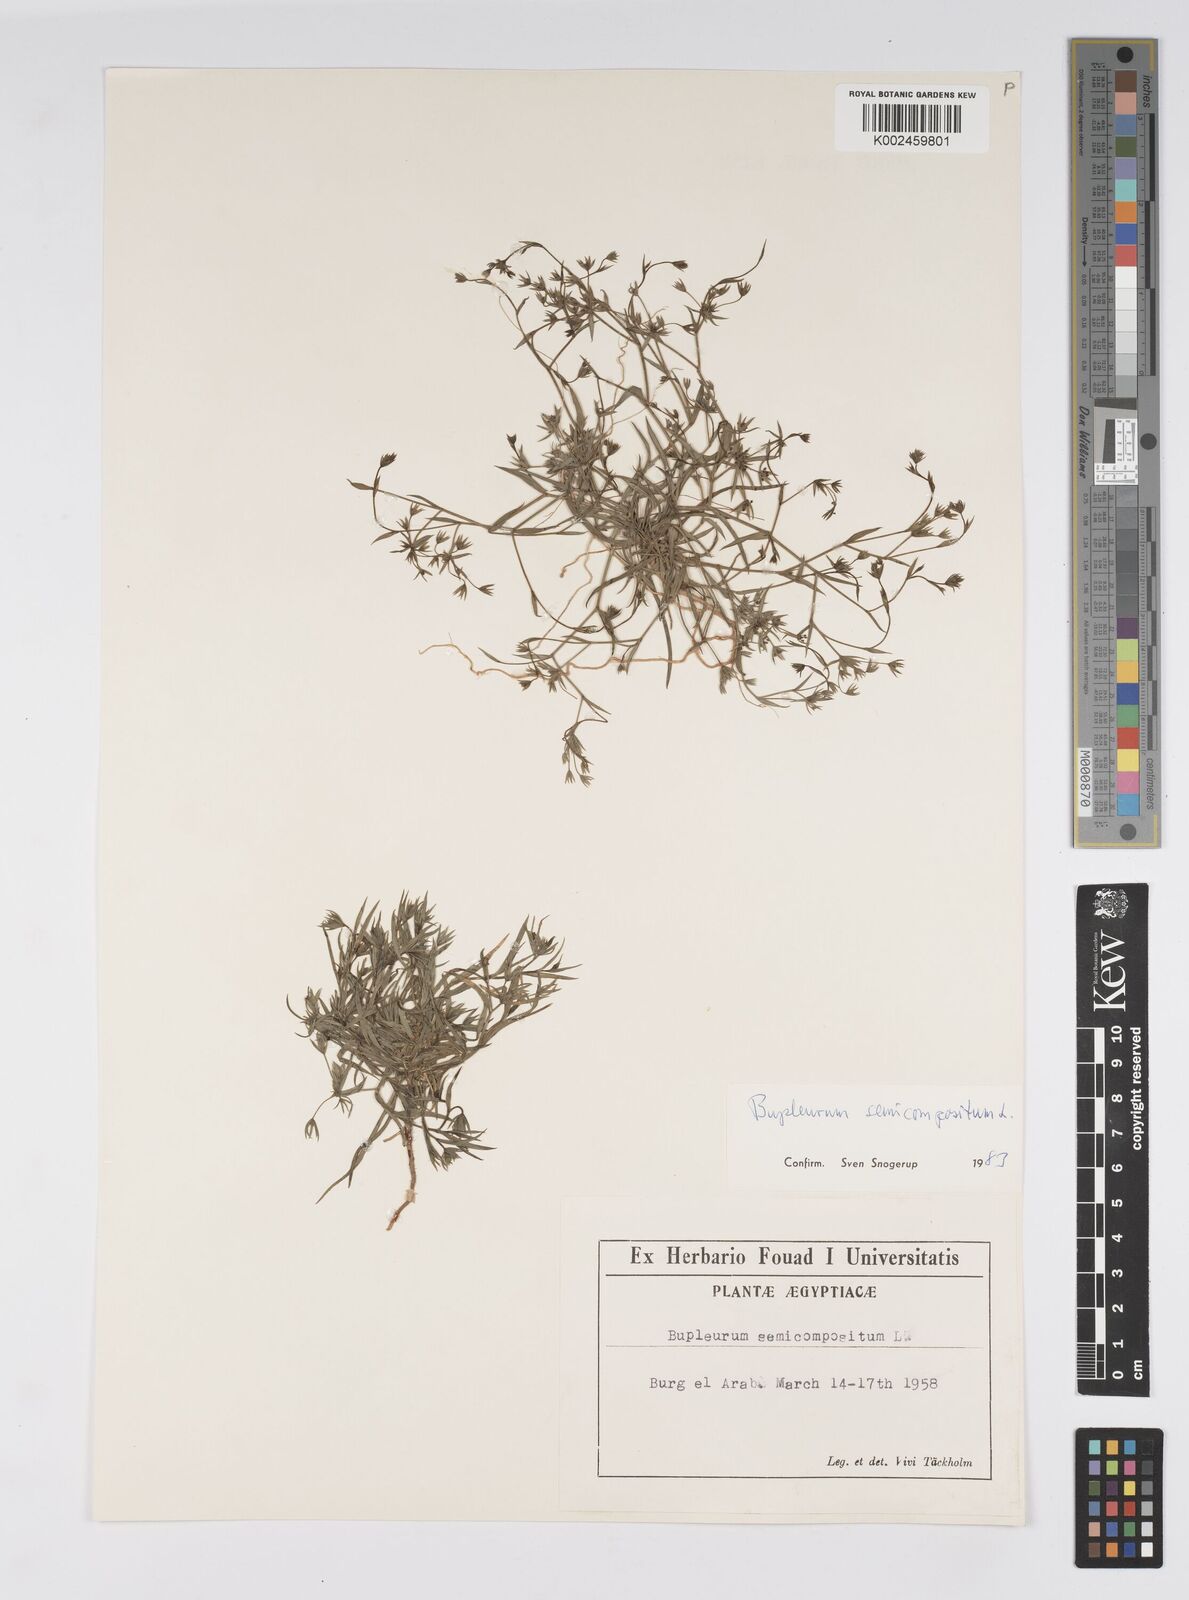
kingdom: Plantae
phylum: Tracheophyta
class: Magnoliopsida
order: Apiales
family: Apiaceae
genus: Bupleurum
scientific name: Bupleurum semicompositum
